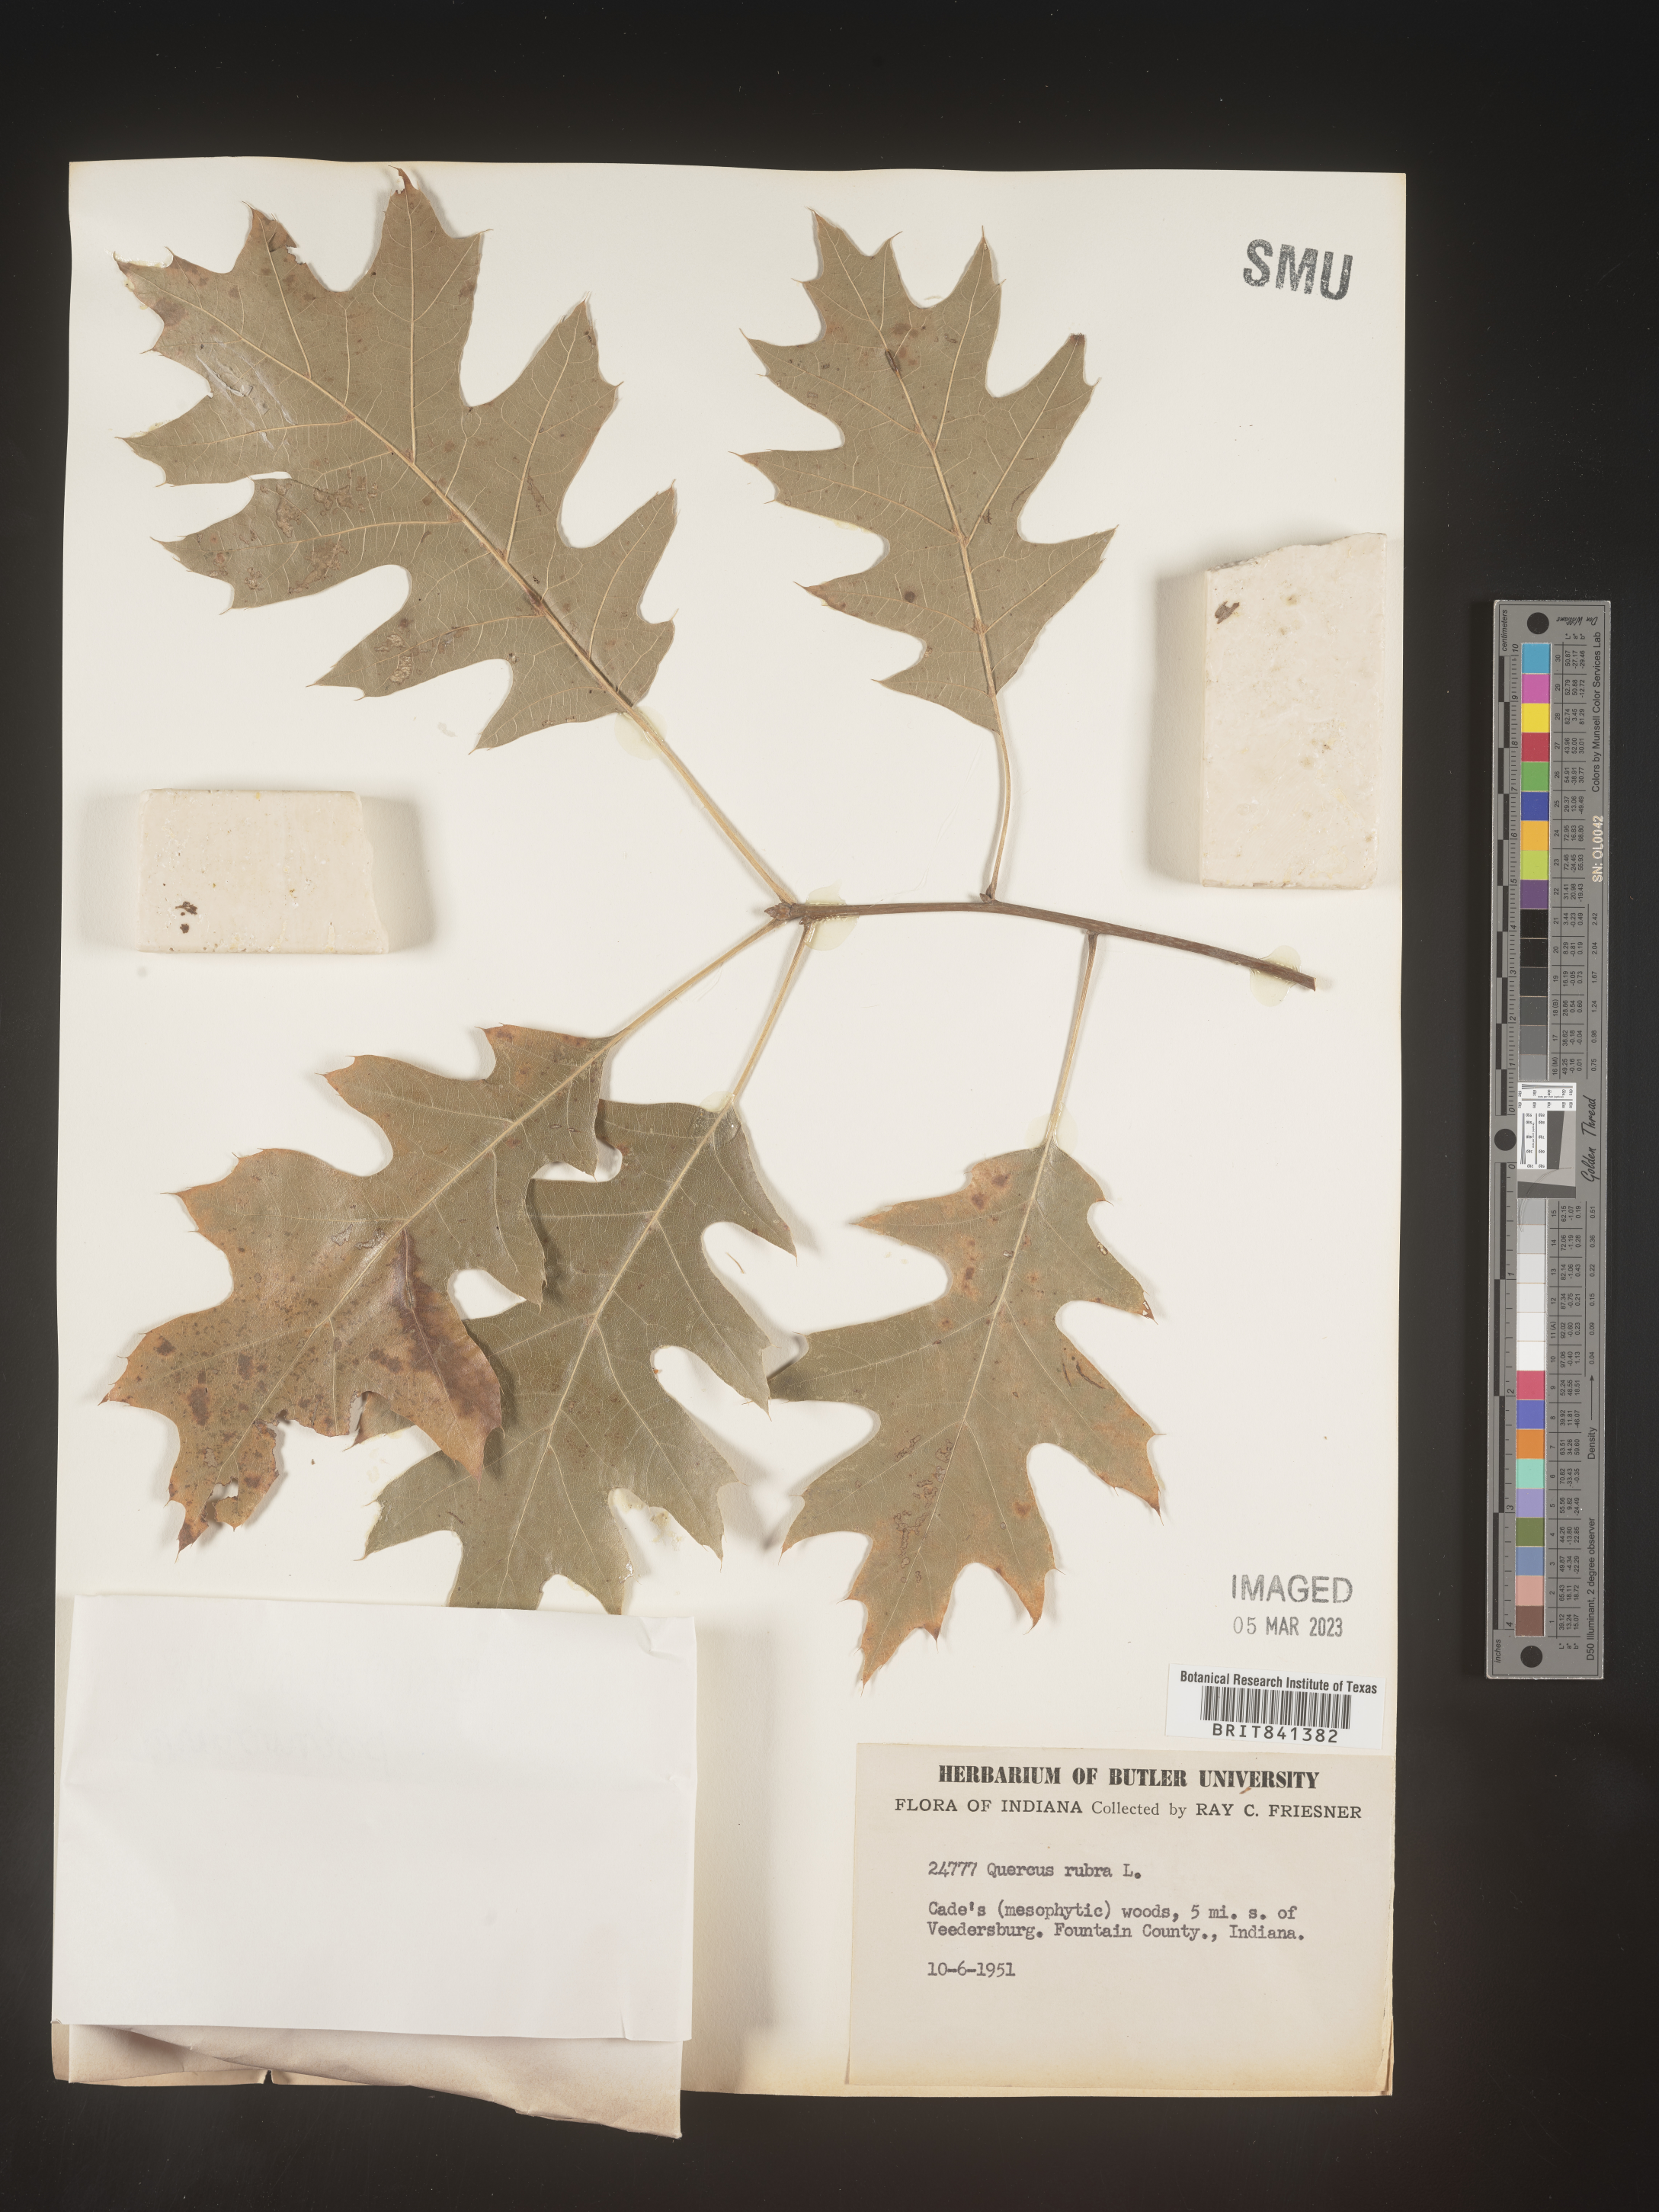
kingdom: Plantae
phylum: Tracheophyta
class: Magnoliopsida
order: Fagales
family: Fagaceae
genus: Quercus
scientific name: Quercus rubra
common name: Red oak
